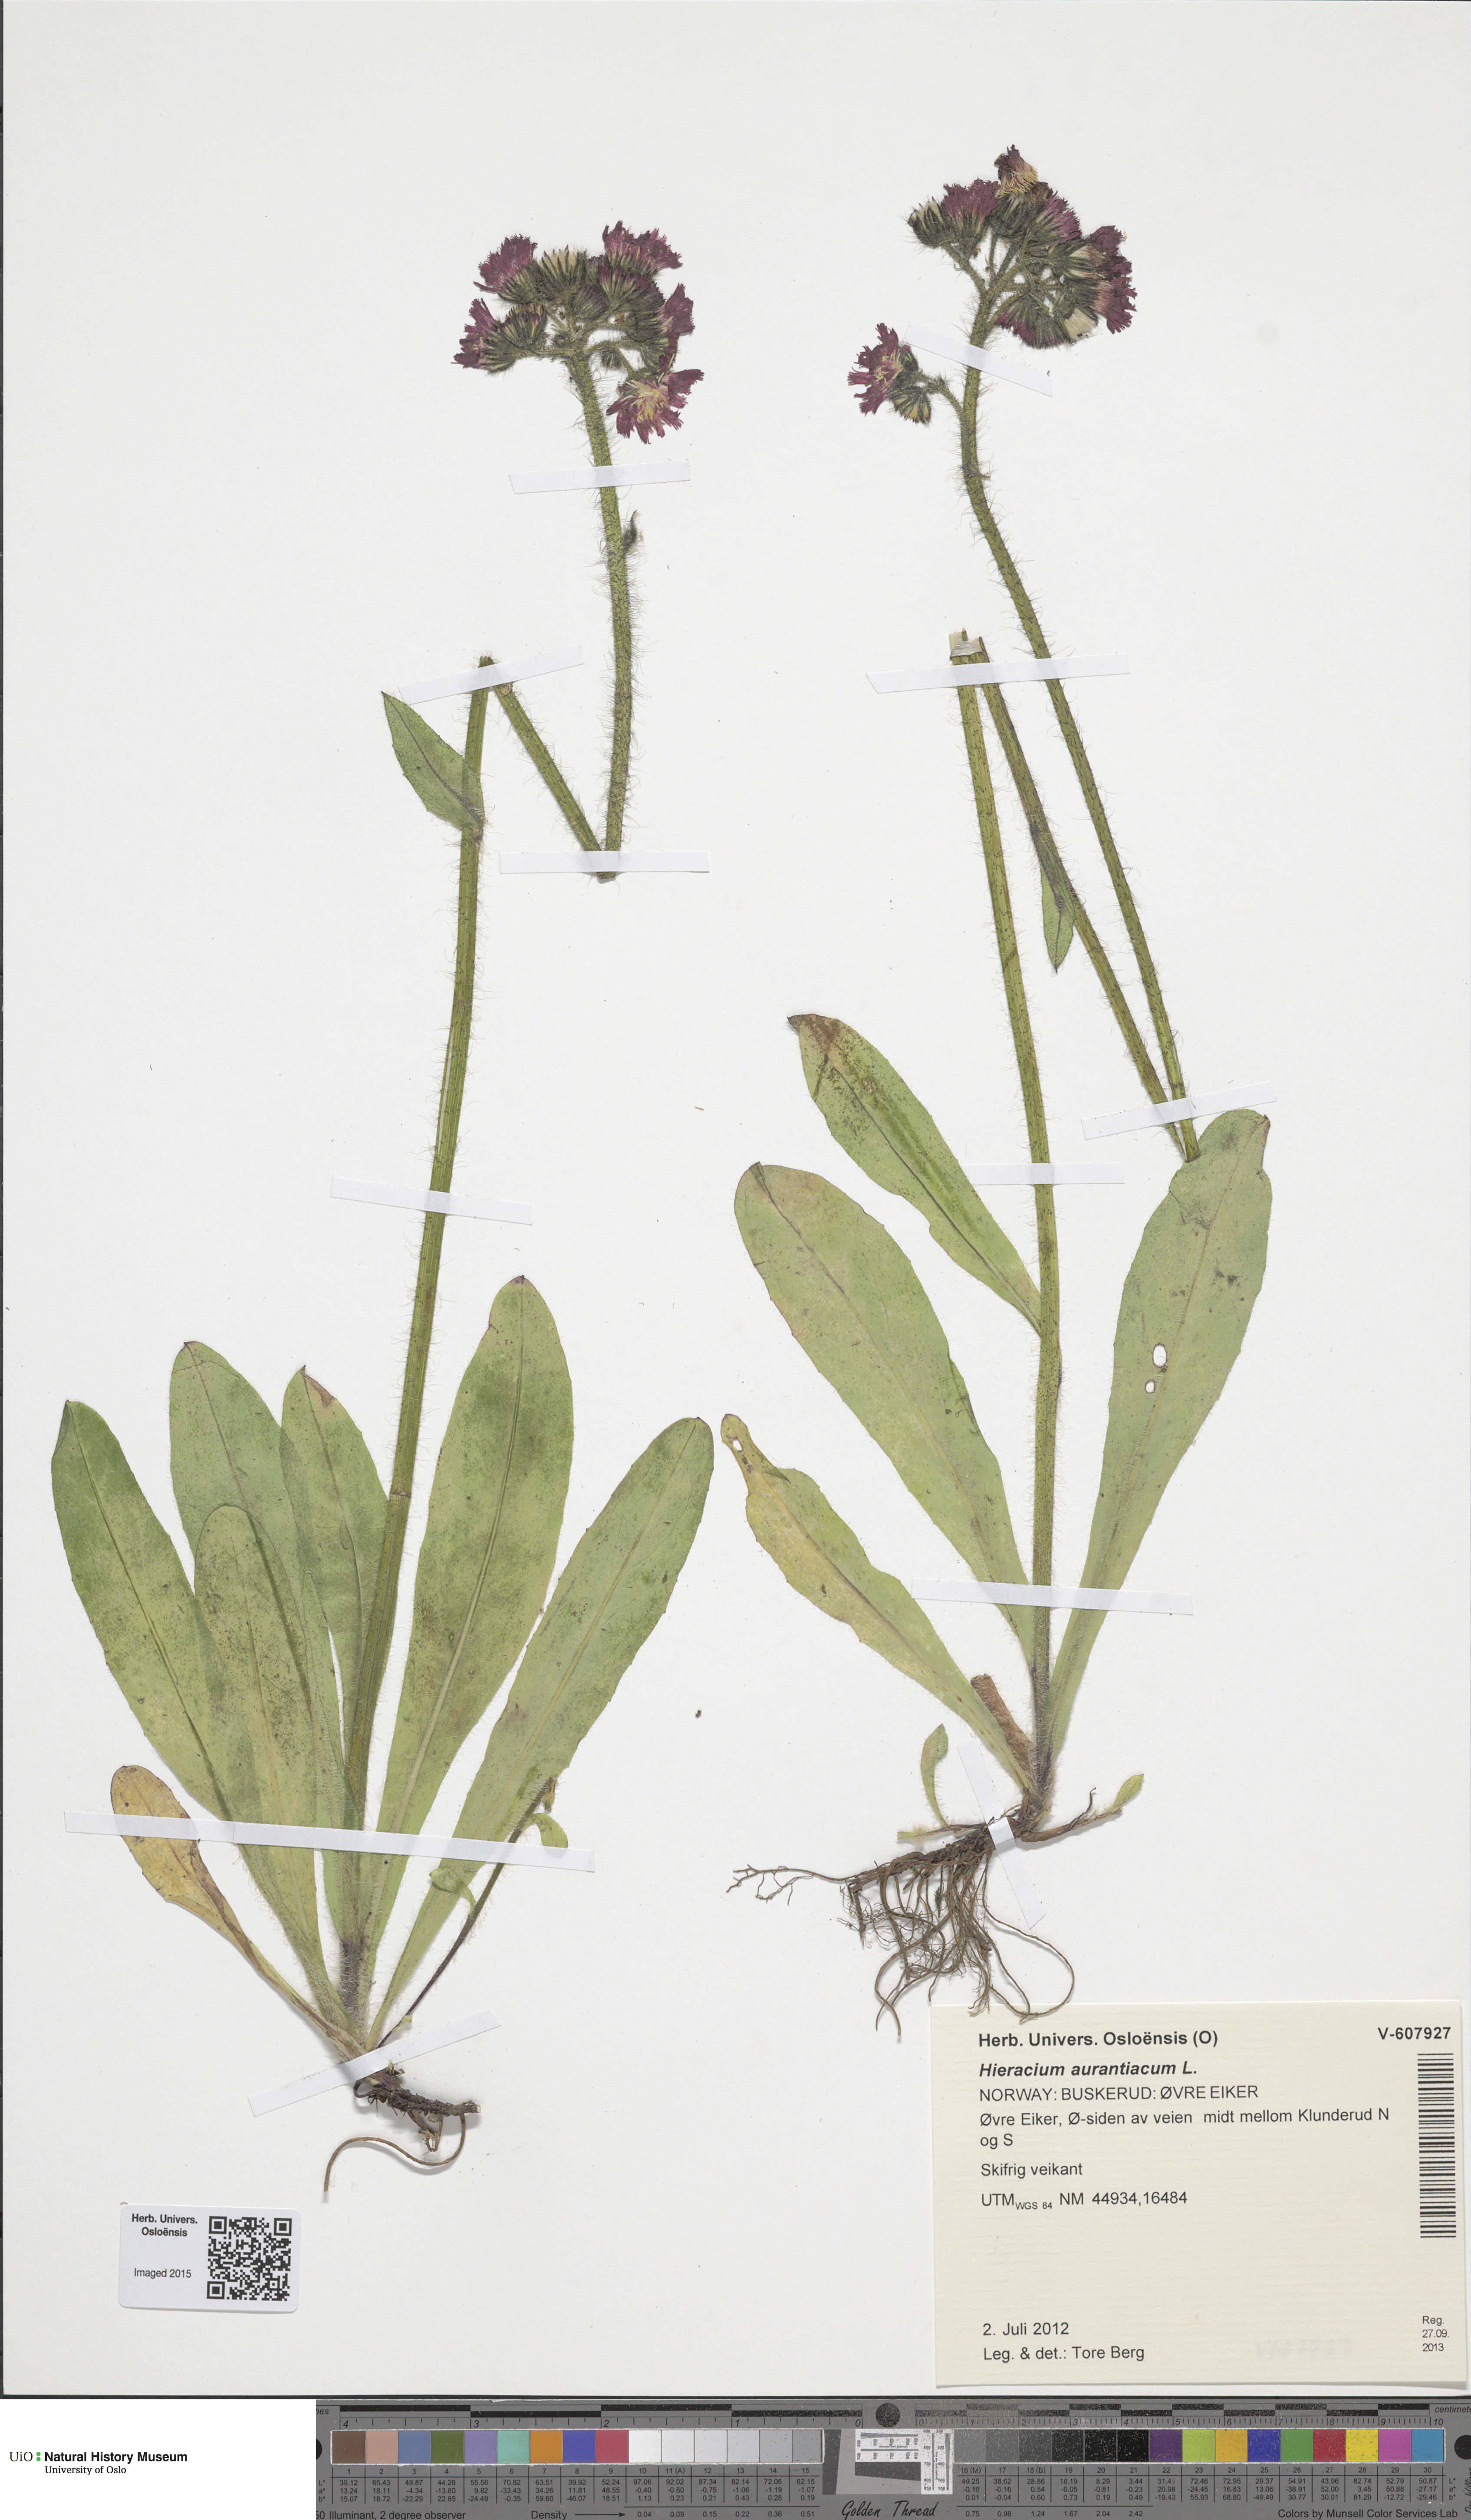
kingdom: Plantae
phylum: Tracheophyta
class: Magnoliopsida
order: Asterales
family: Asteraceae
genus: Pilosella
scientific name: Pilosella aurantiaca
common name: Fox-and-cubs
